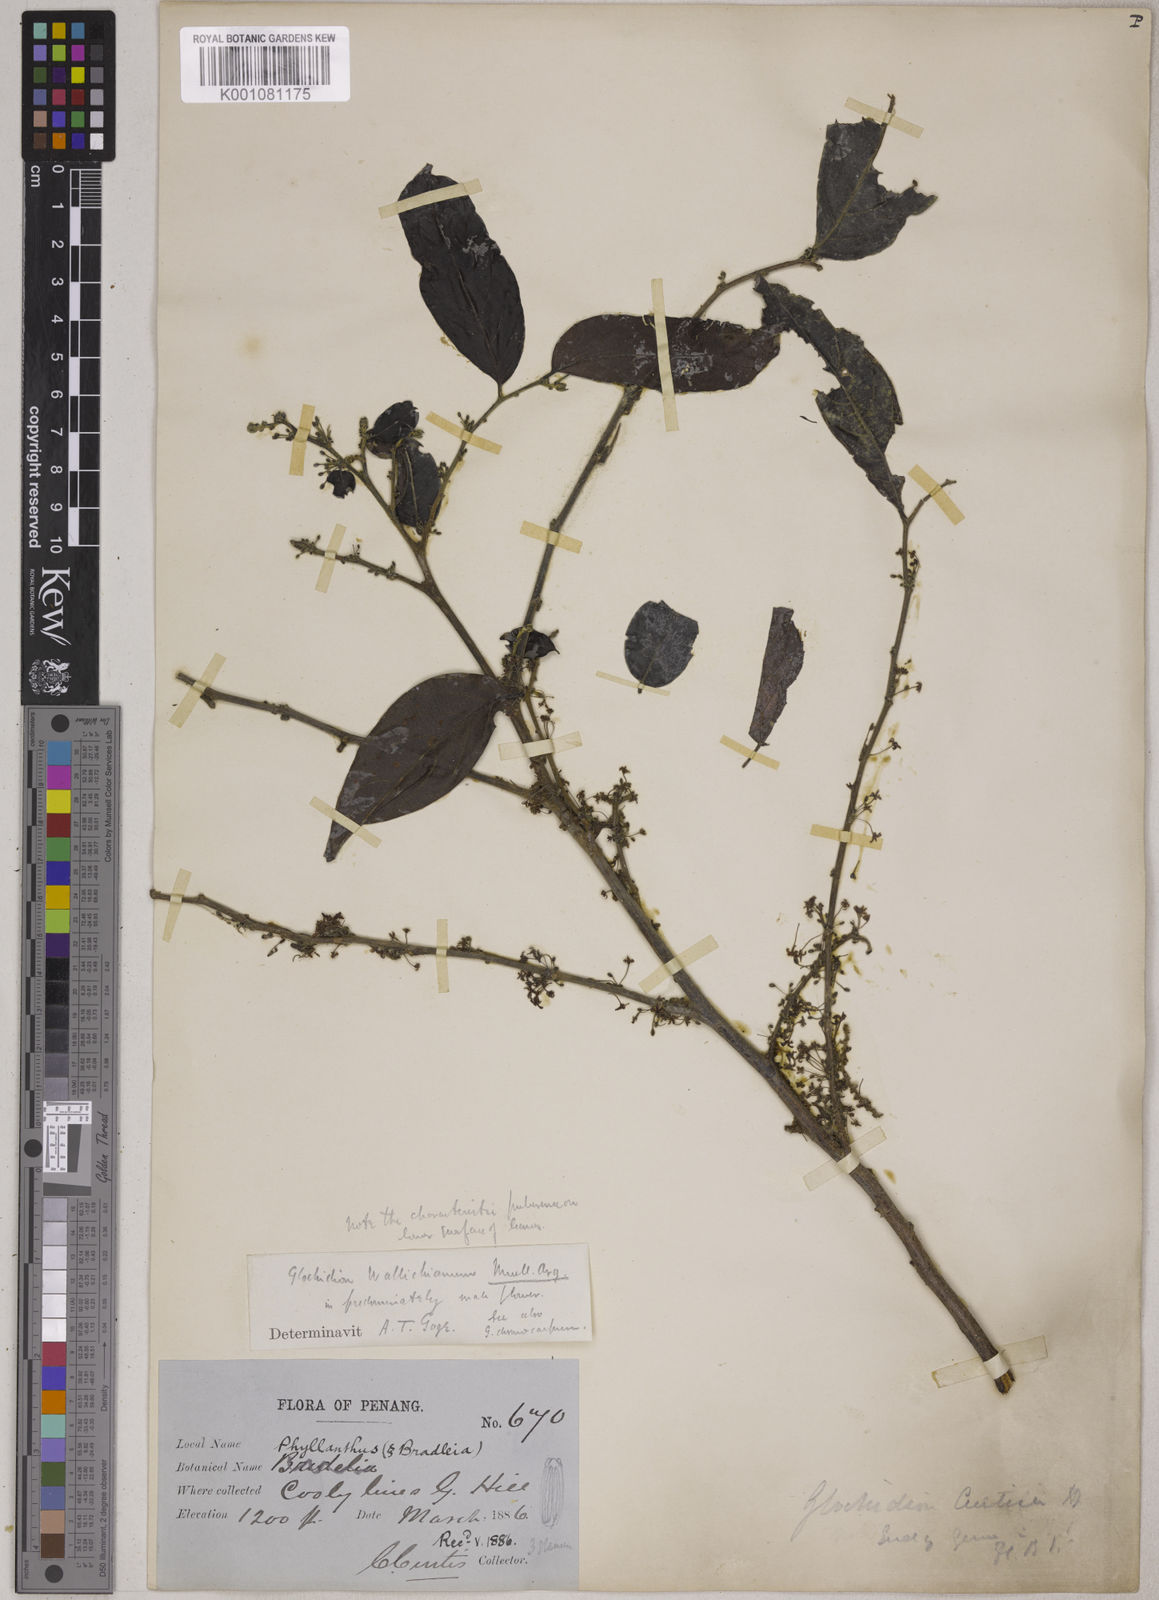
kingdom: Plantae
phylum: Tracheophyta
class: Magnoliopsida
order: Malpighiales
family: Phyllanthaceae
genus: Glochidion
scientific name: Glochidion glomerulatum
